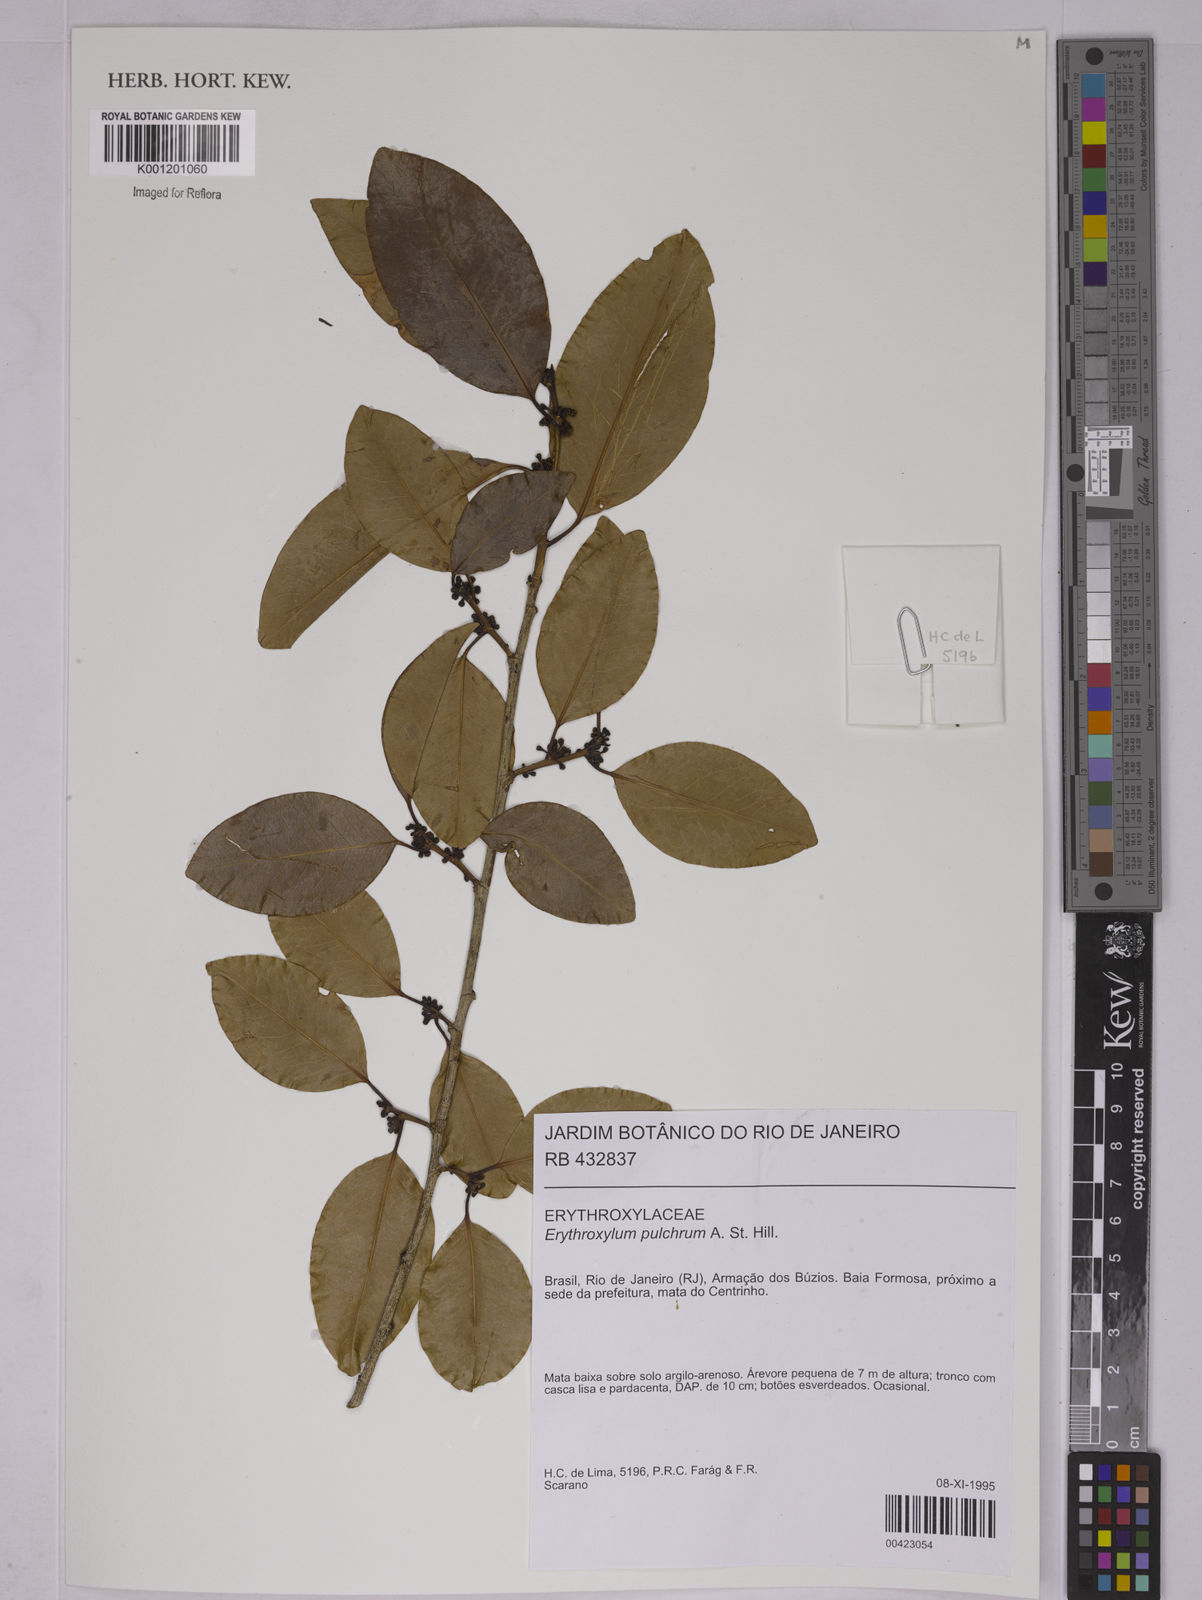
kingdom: Plantae
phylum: Tracheophyta
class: Magnoliopsida
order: Malpighiales
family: Erythroxylaceae
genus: Erythroxylum
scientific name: Erythroxylum pulchrum
